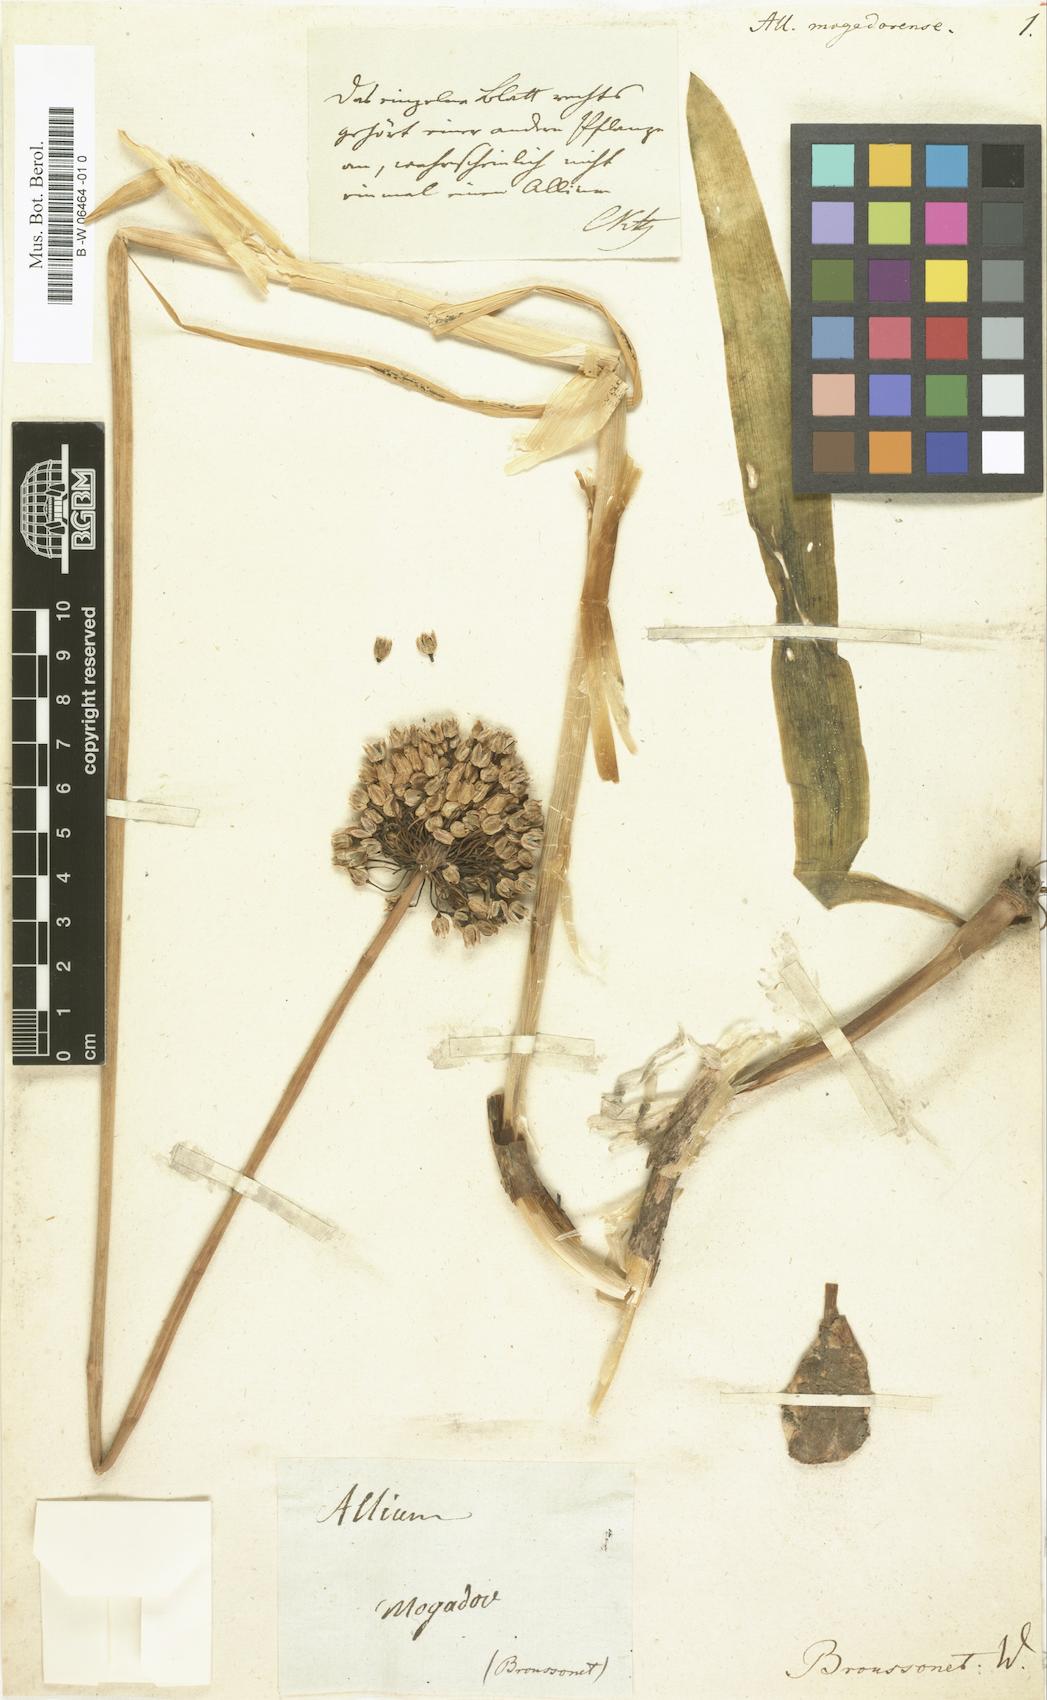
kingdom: Plantae
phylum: Tracheophyta
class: Liliopsida
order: Asparagales
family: Amaryllidaceae
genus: Allium
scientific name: Allium mogadorense
